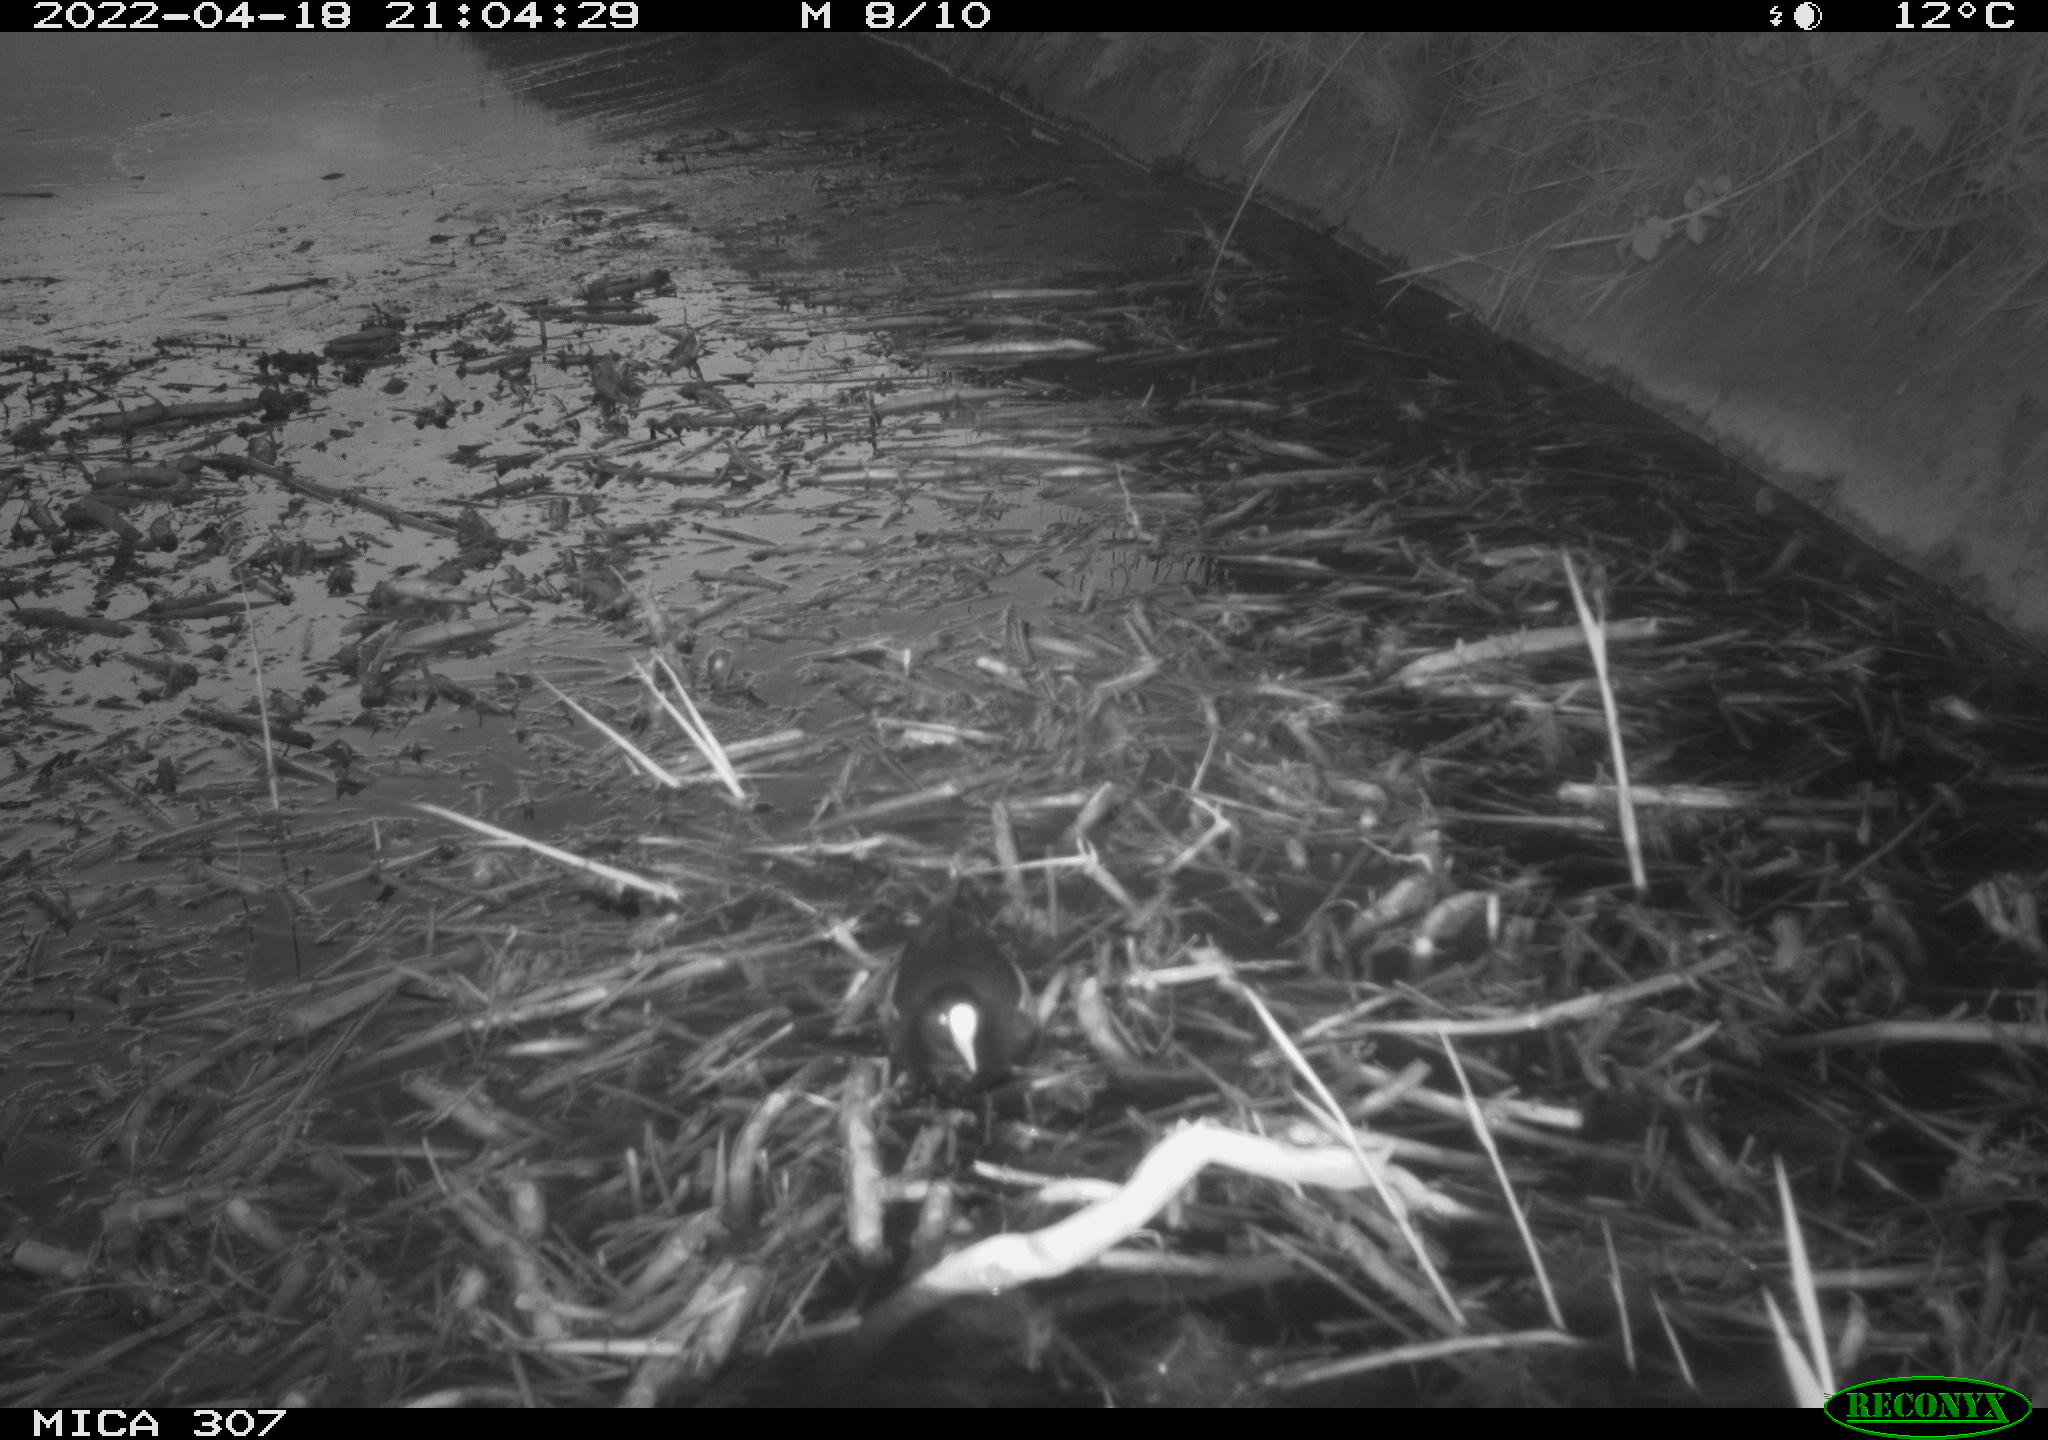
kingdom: Animalia
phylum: Chordata
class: Aves
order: Gruiformes
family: Rallidae
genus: Gallinula
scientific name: Gallinula chloropus
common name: Common moorhen
